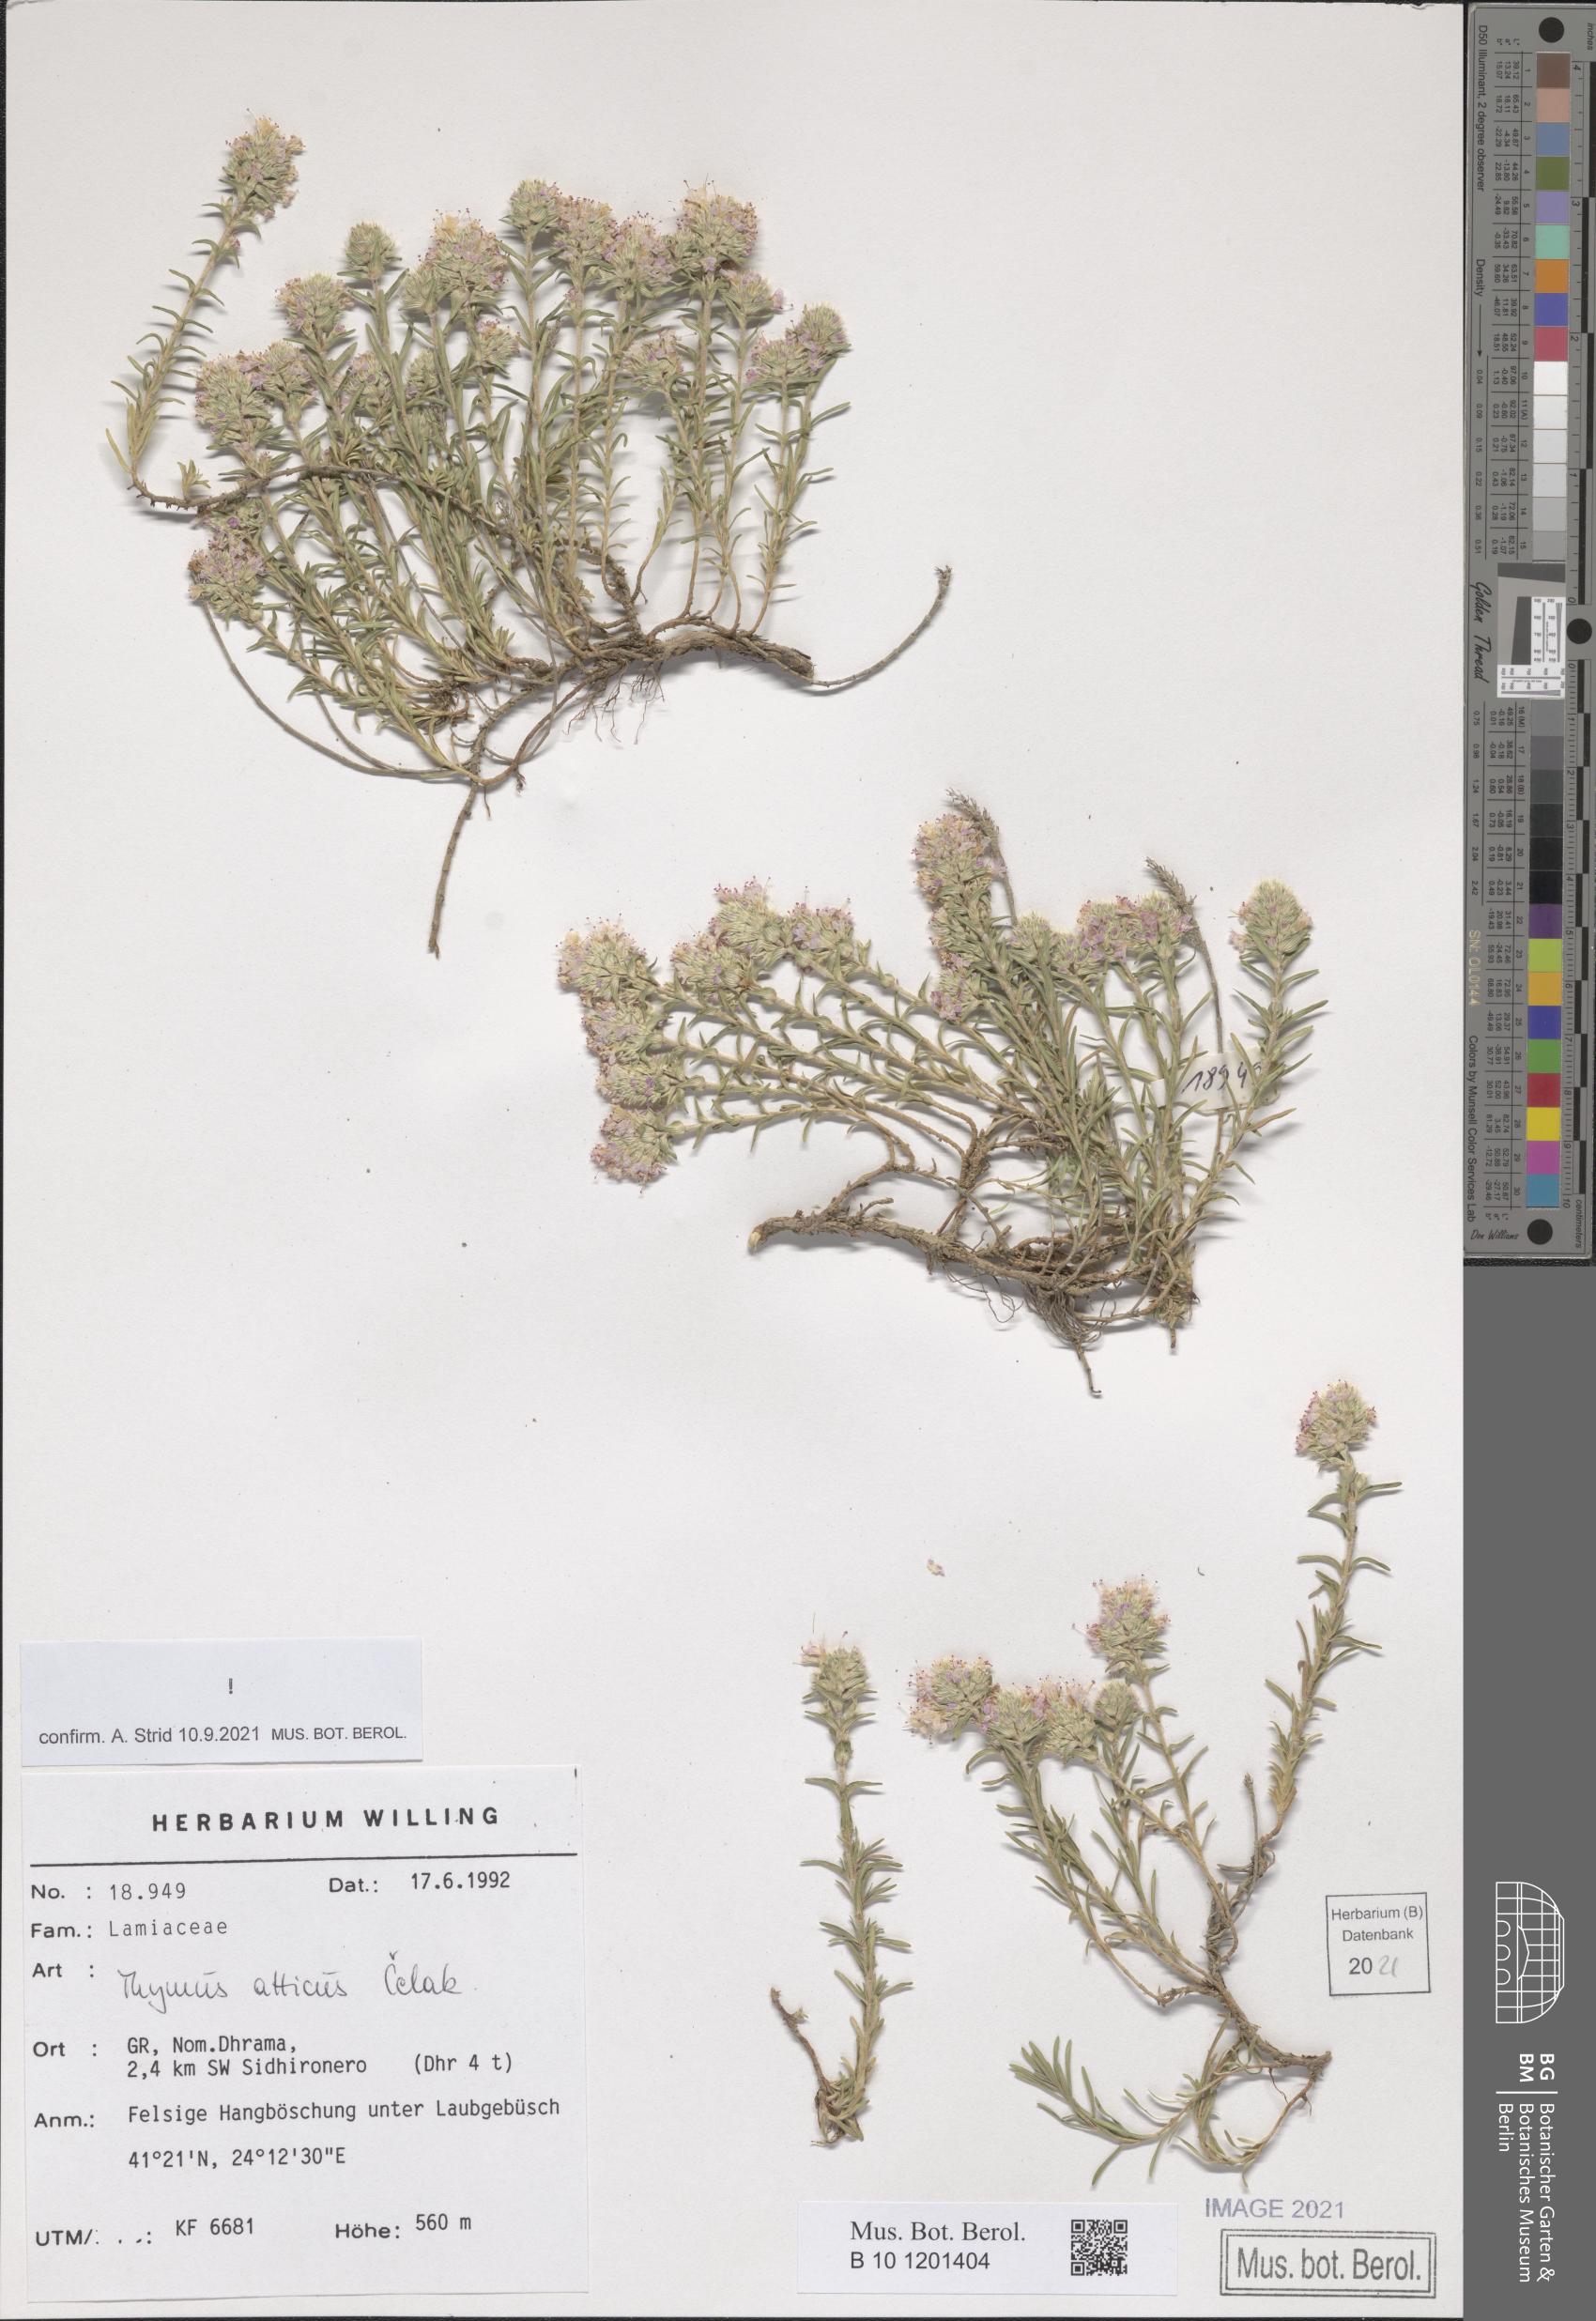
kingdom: Plantae
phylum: Tracheophyta
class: Magnoliopsida
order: Lamiales
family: Lamiaceae
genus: Thymus
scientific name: Thymus atticus
